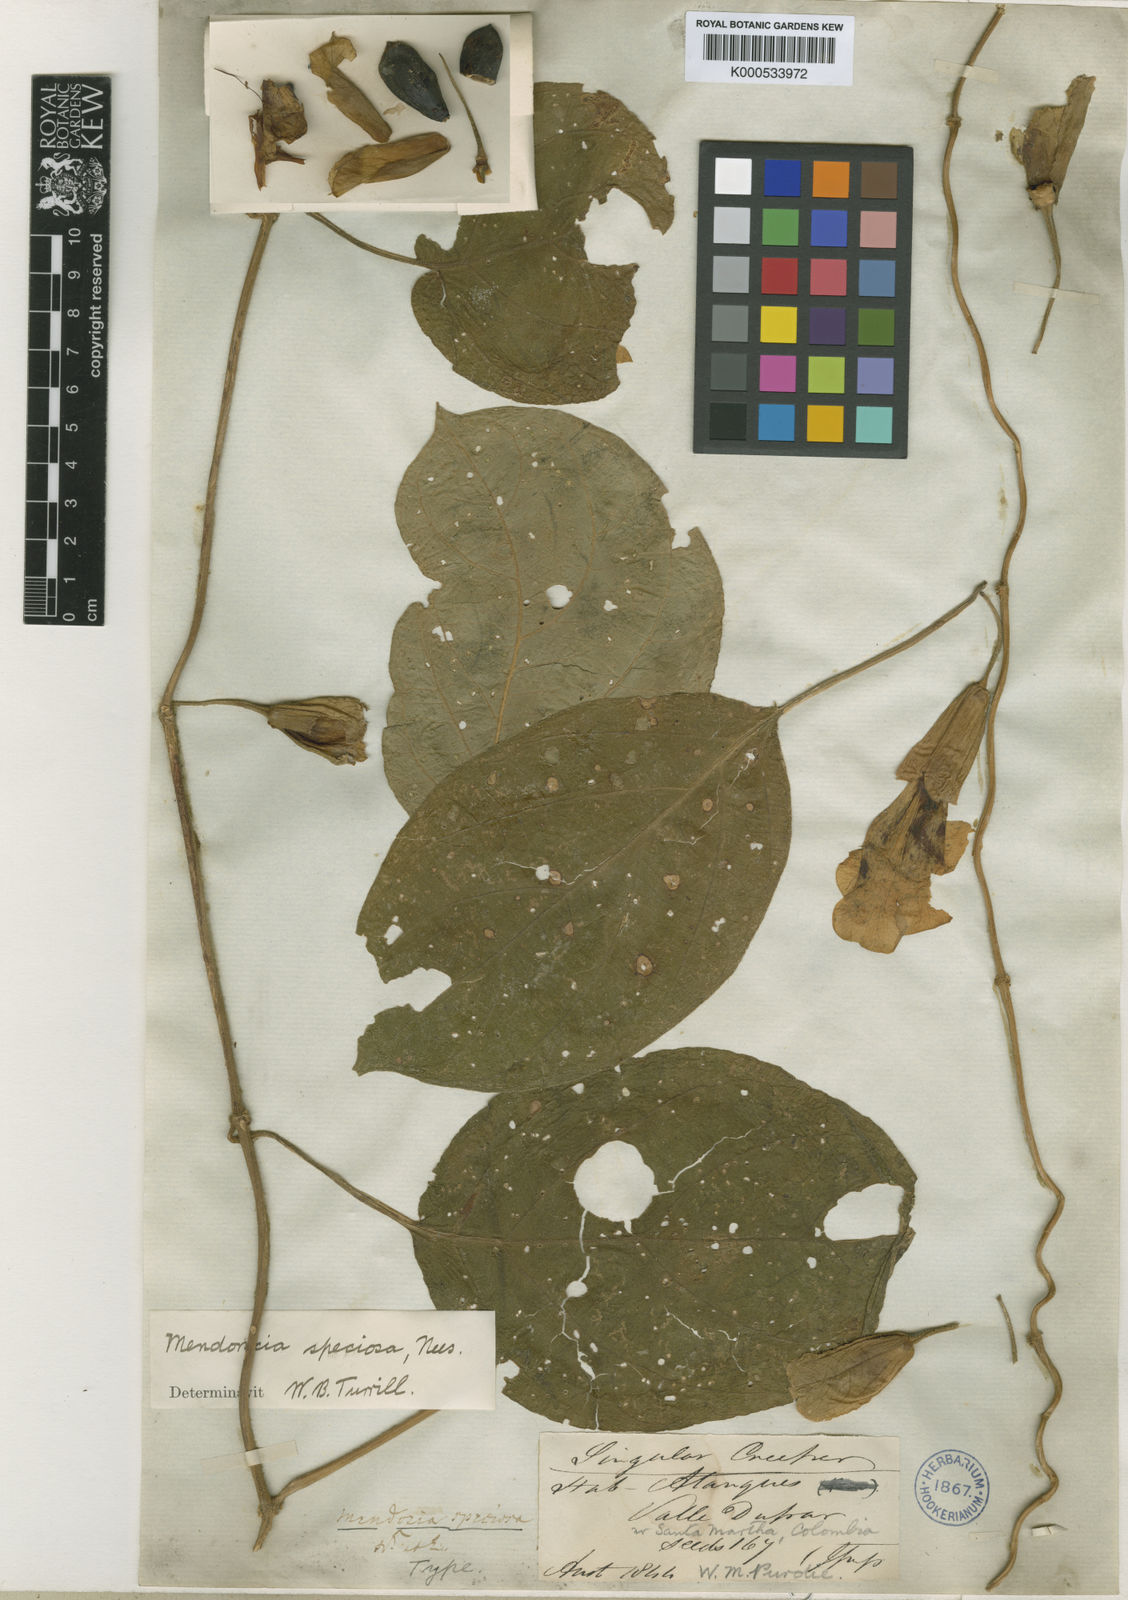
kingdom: Plantae
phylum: Tracheophyta
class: Magnoliopsida
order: Lamiales
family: Acanthaceae
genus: Mendoncia
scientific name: Mendoncia speciosa
